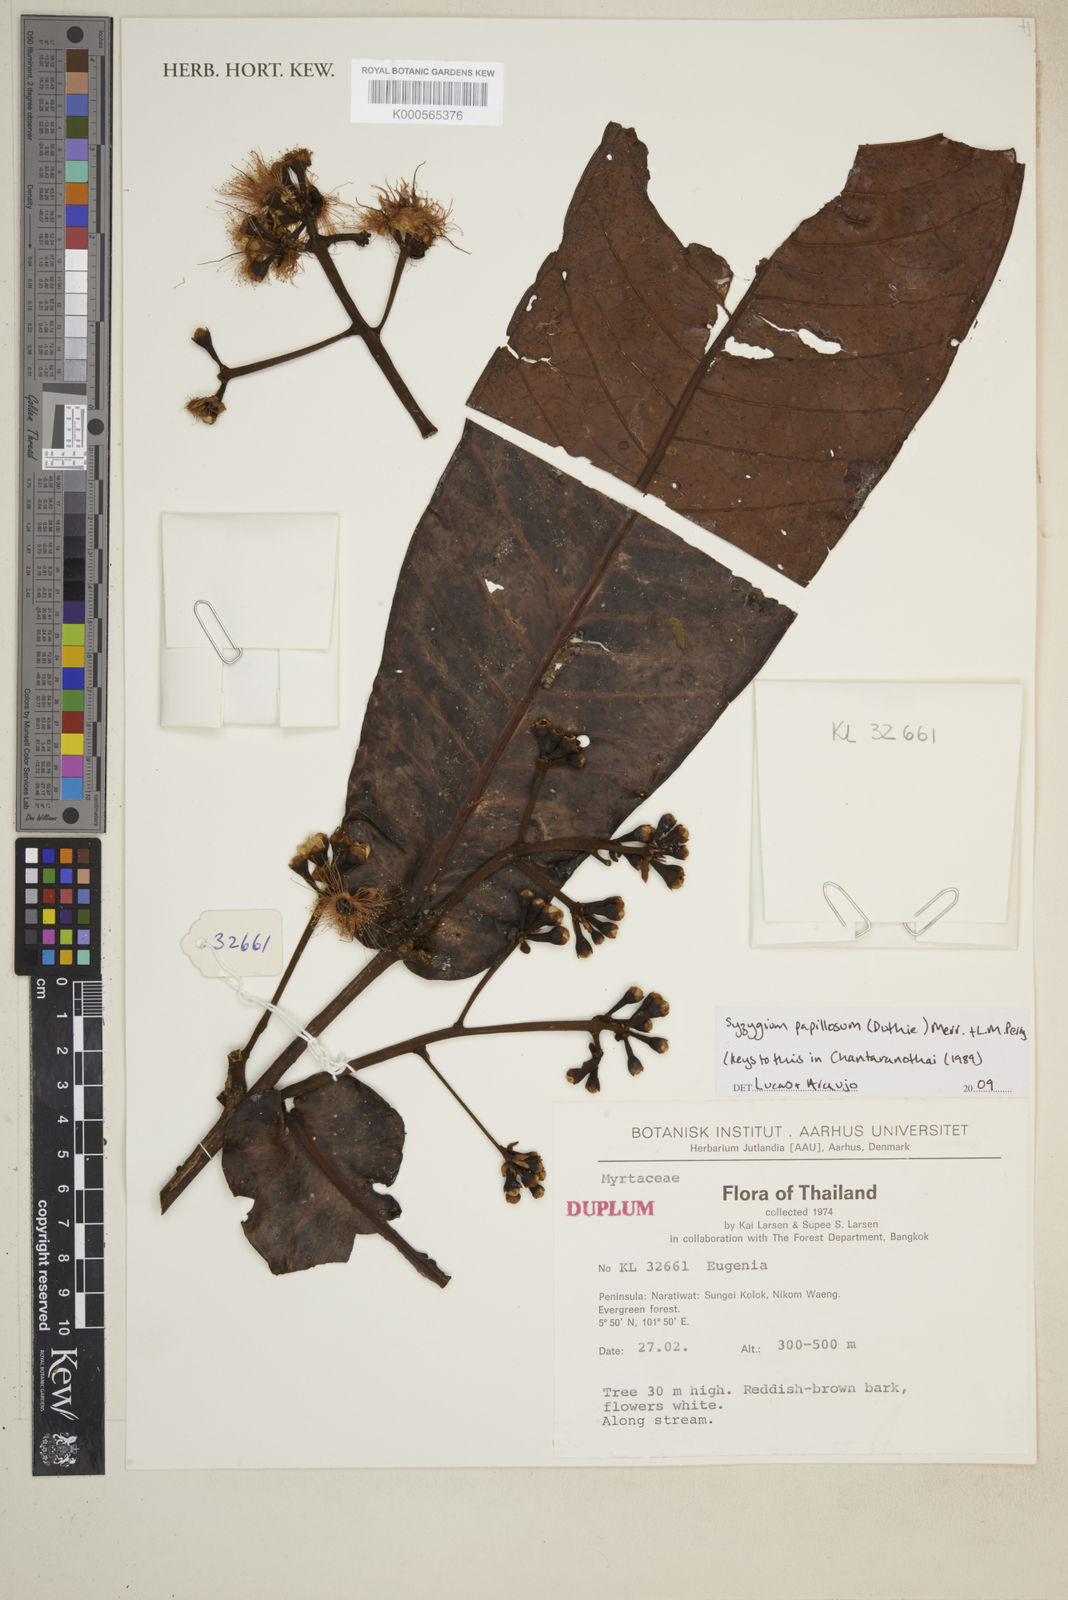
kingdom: Plantae
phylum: Tracheophyta
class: Magnoliopsida
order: Myrtales
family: Myrtaceae
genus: Syzygium
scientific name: Syzygium papillosum
